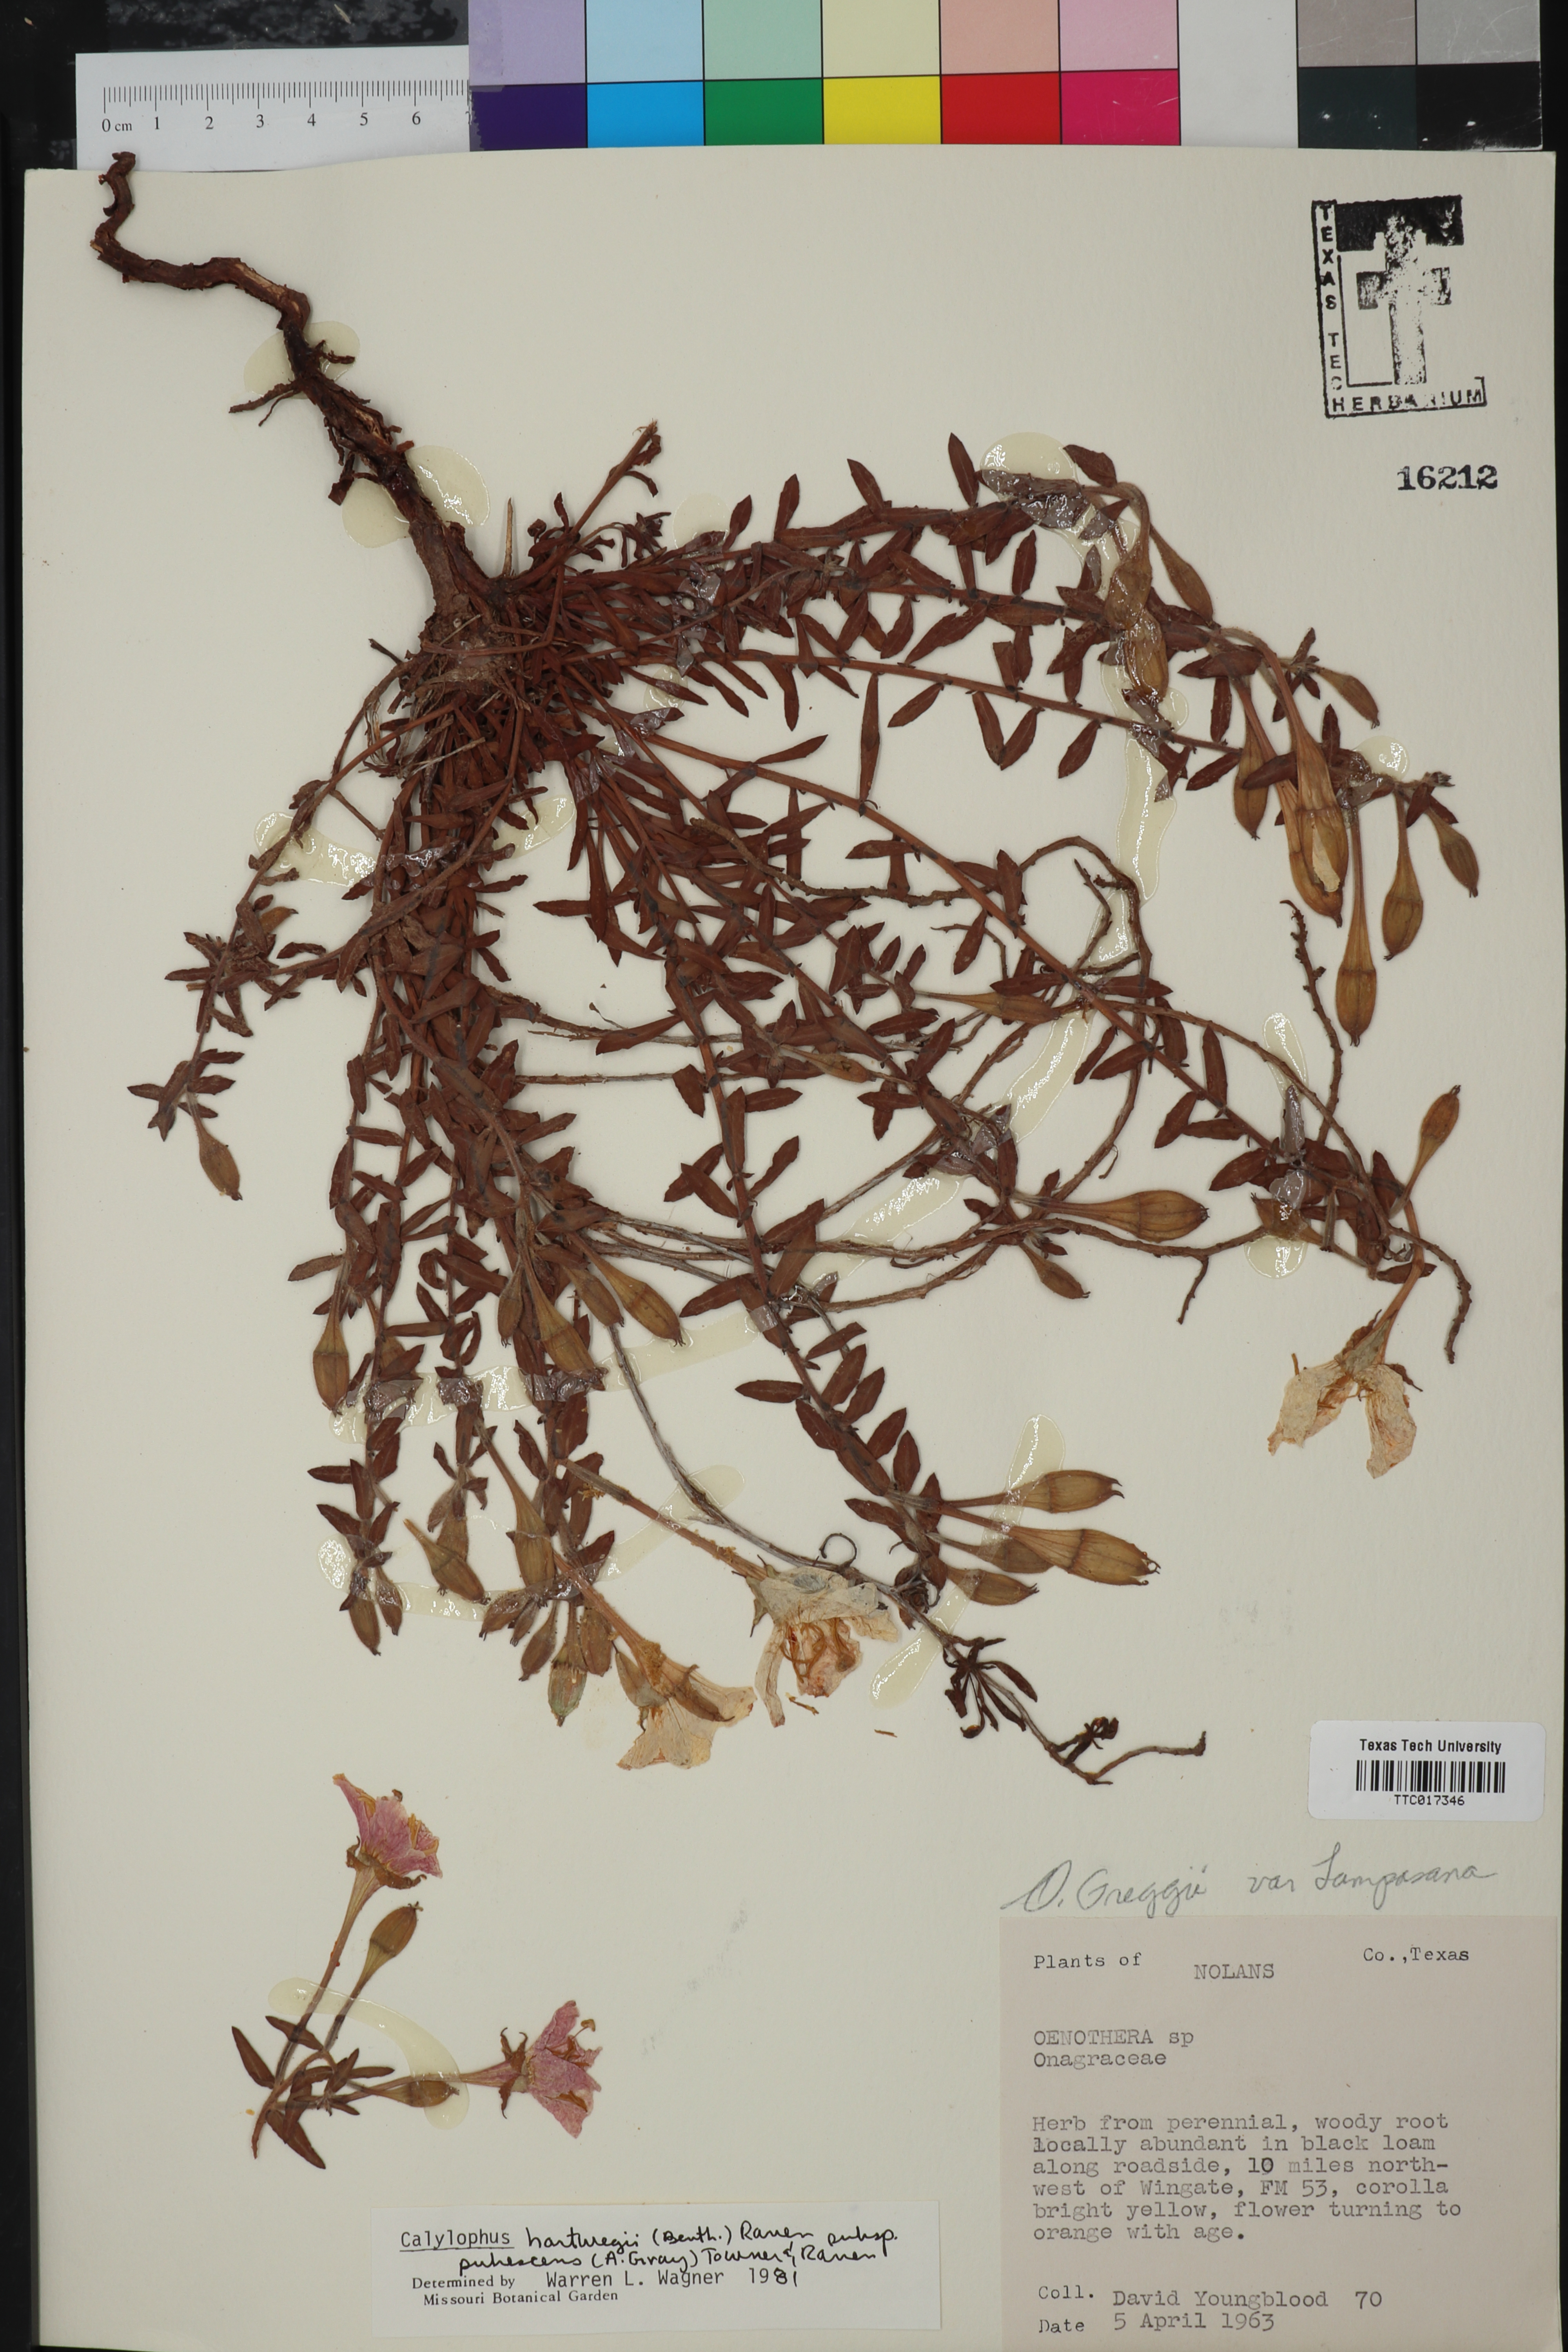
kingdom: Plantae
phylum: Tracheophyta
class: Magnoliopsida
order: Myrtales
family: Onagraceae
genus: Oenothera
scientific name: Oenothera hartwegii
